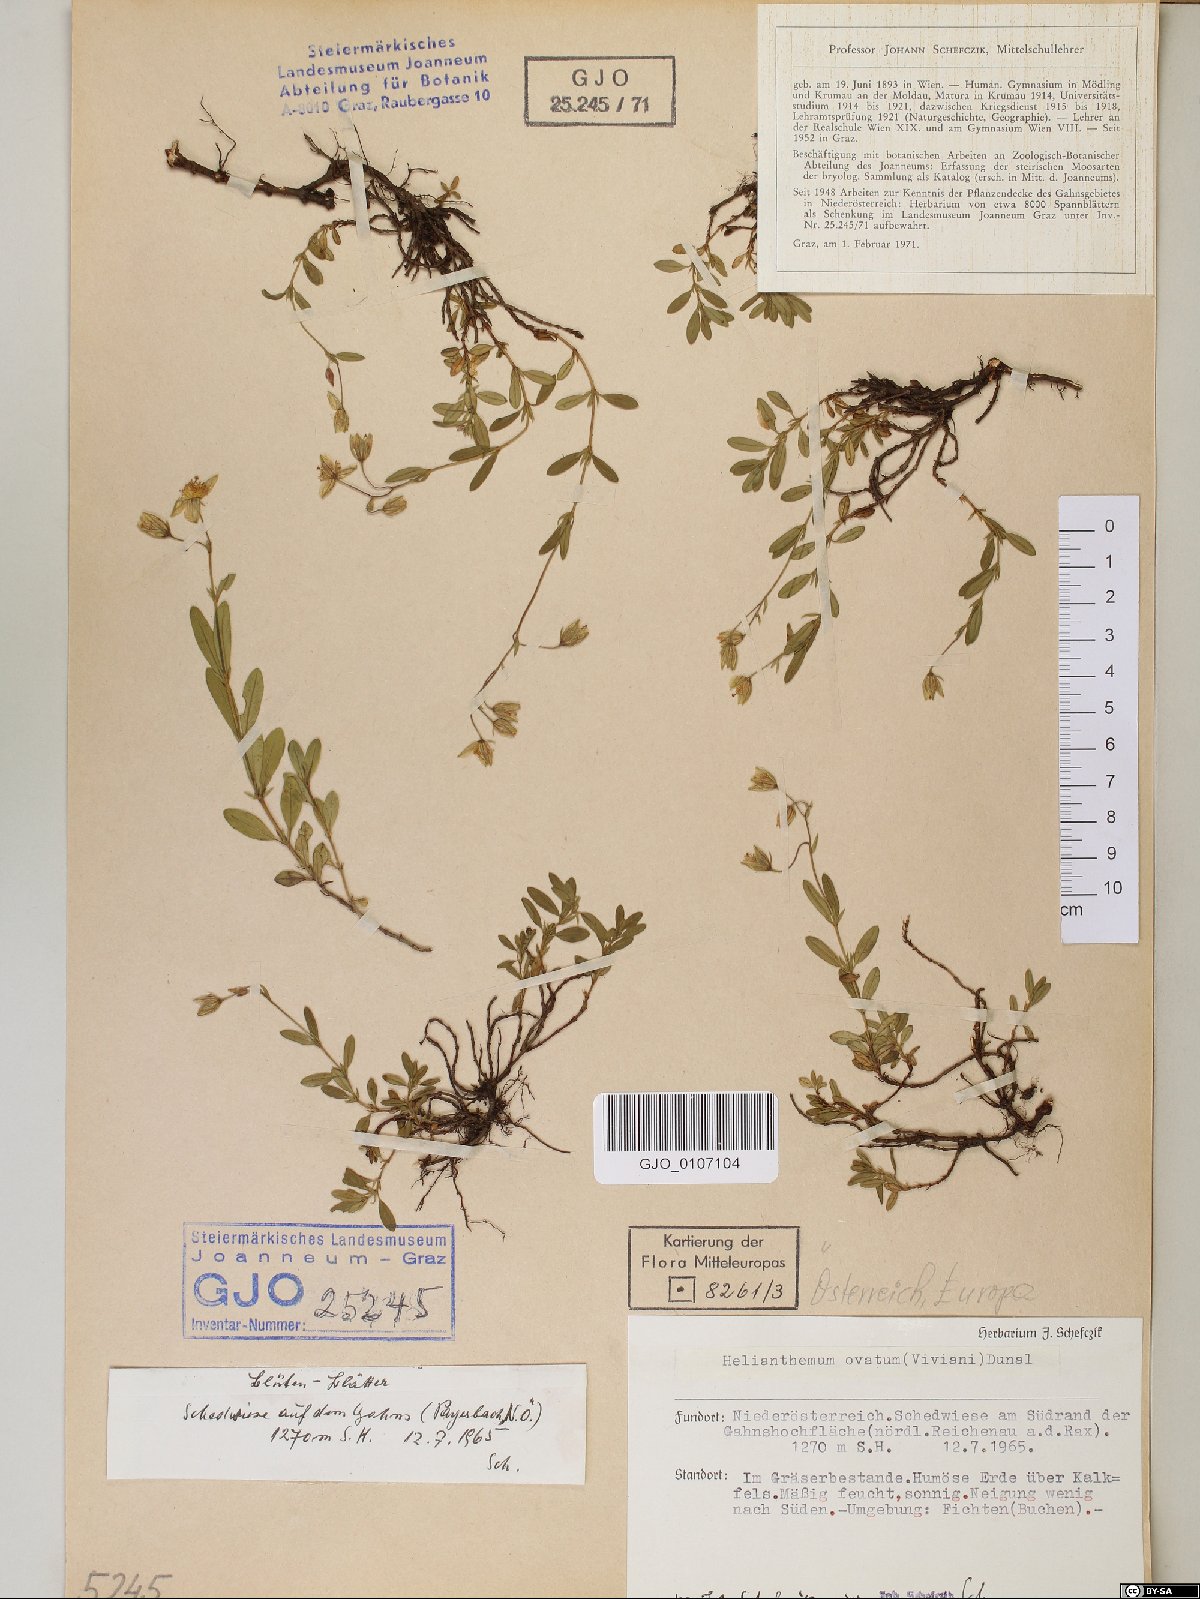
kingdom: Plantae
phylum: Tracheophyta
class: Magnoliopsida
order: Malvales
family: Cistaceae
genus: Helianthemum
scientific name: Helianthemum nummularium
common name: Common rock-rose
